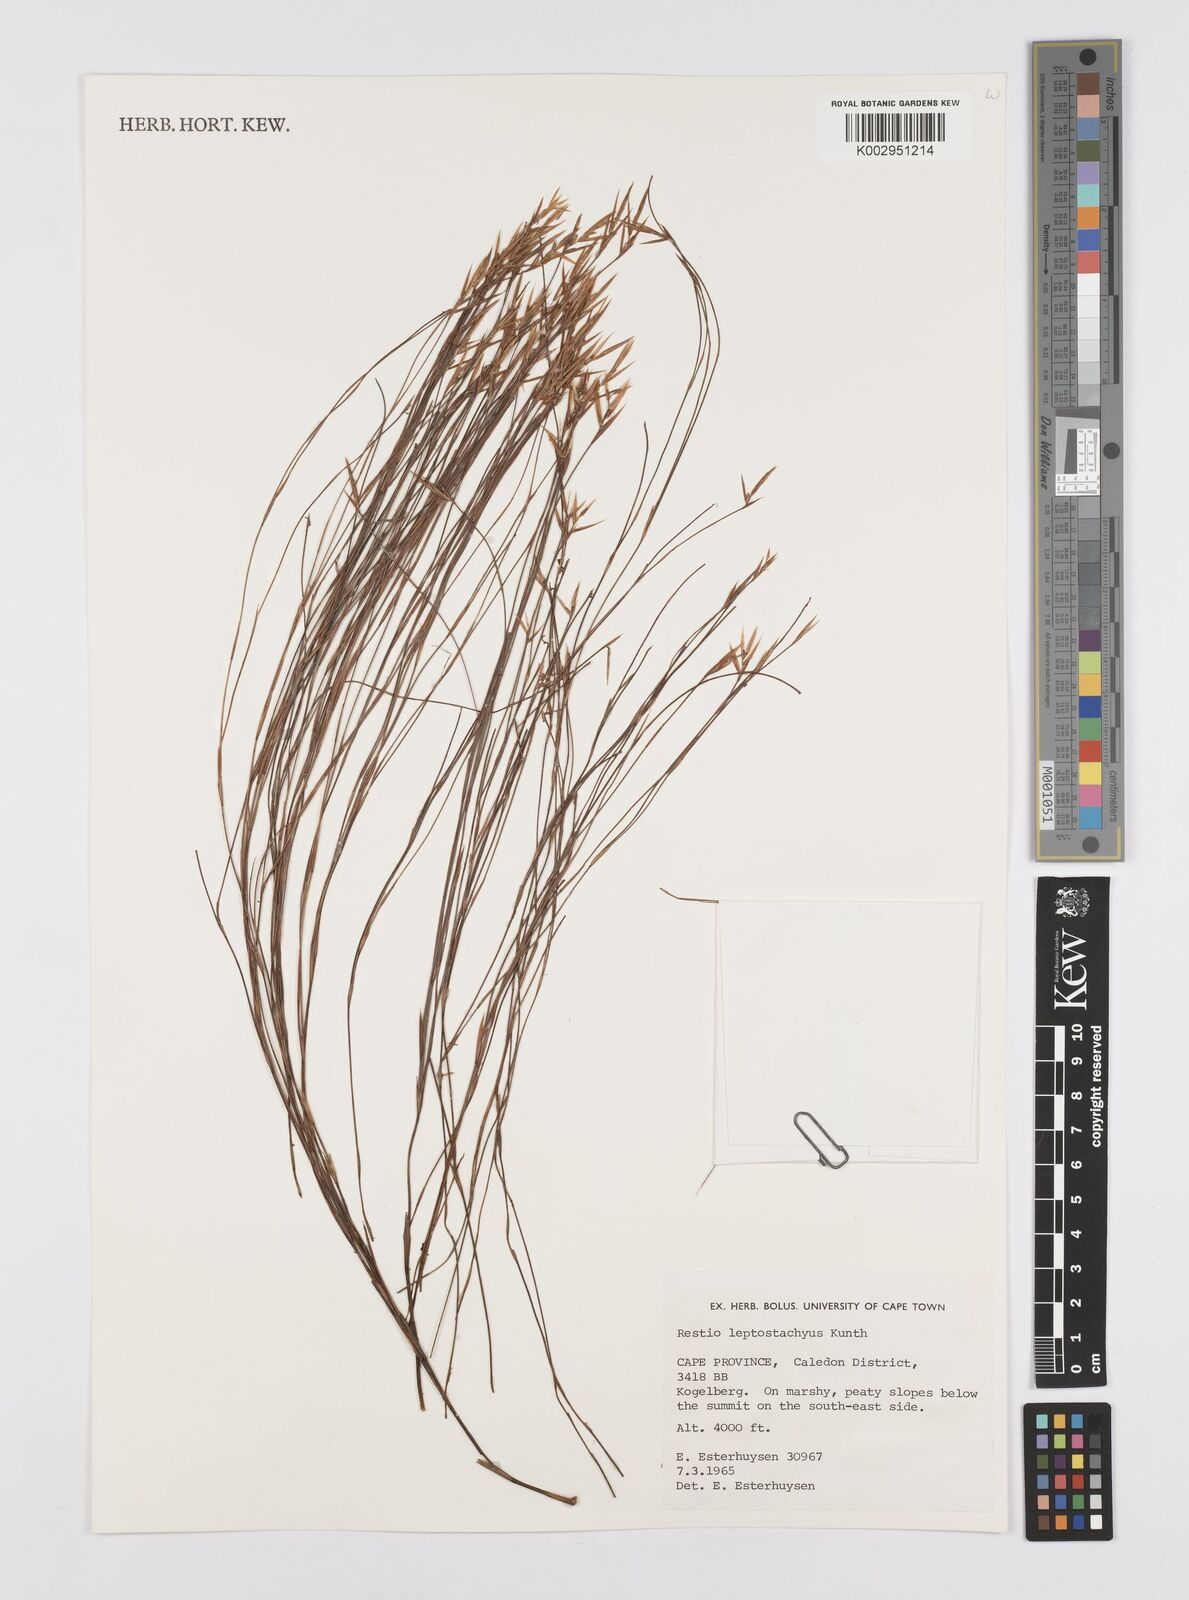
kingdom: Plantae
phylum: Tracheophyta
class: Liliopsida
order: Poales
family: Restionaceae
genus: Restio
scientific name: Restio leptostachyus
